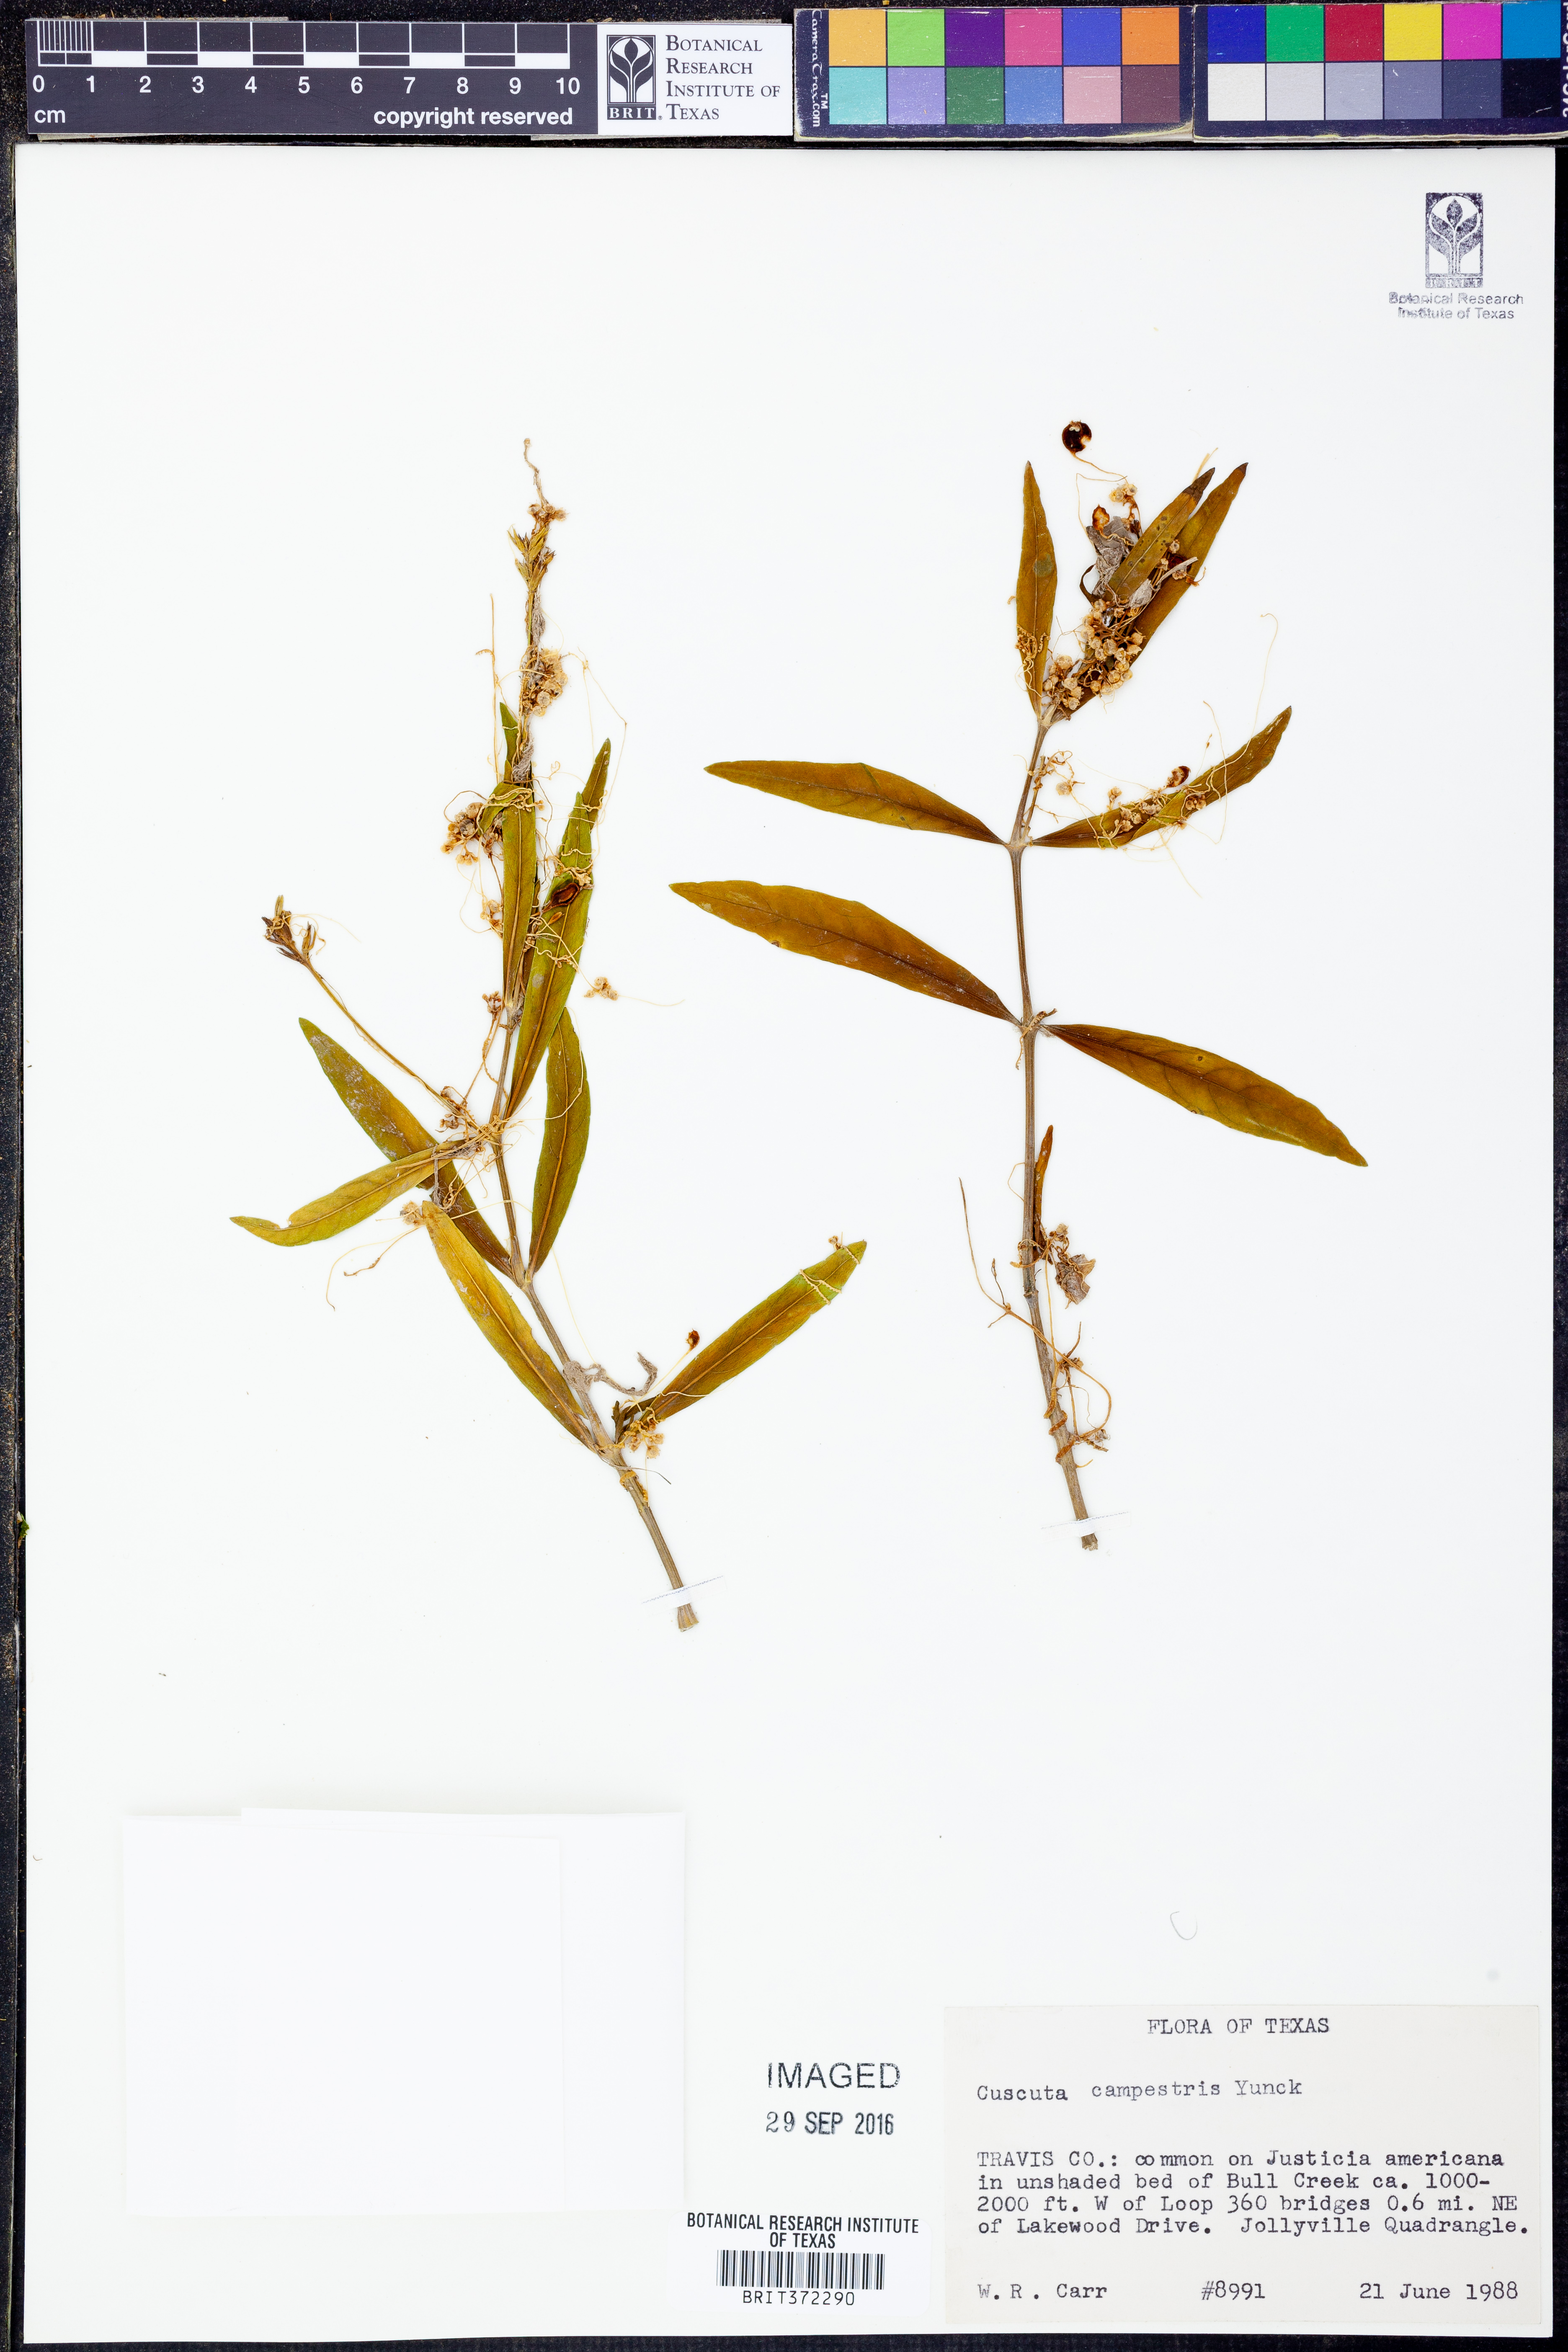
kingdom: Plantae
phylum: Tracheophyta
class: Magnoliopsida
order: Solanales
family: Convolvulaceae
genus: Cuscuta
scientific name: Cuscuta campestris
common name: Yellow dodder
